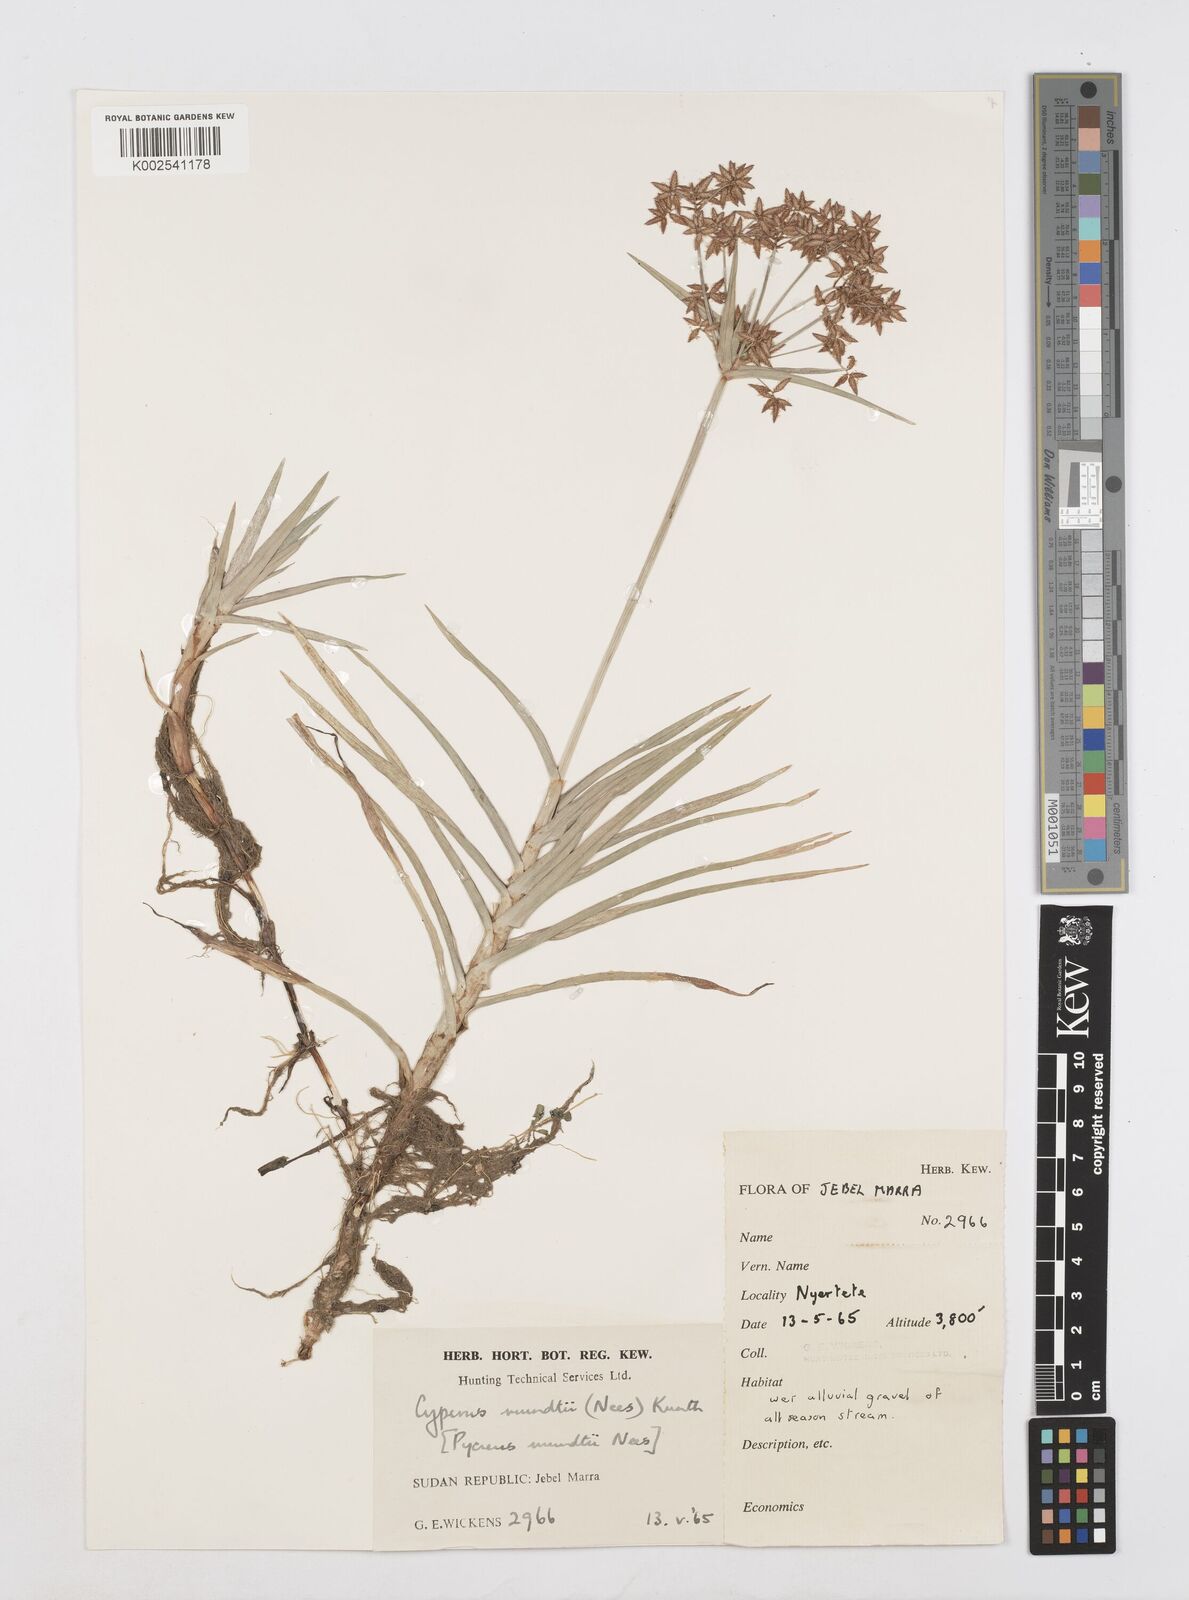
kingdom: Plantae
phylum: Tracheophyta
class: Liliopsida
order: Poales
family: Cyperaceae
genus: Cyperus
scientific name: Cyperus mundii
